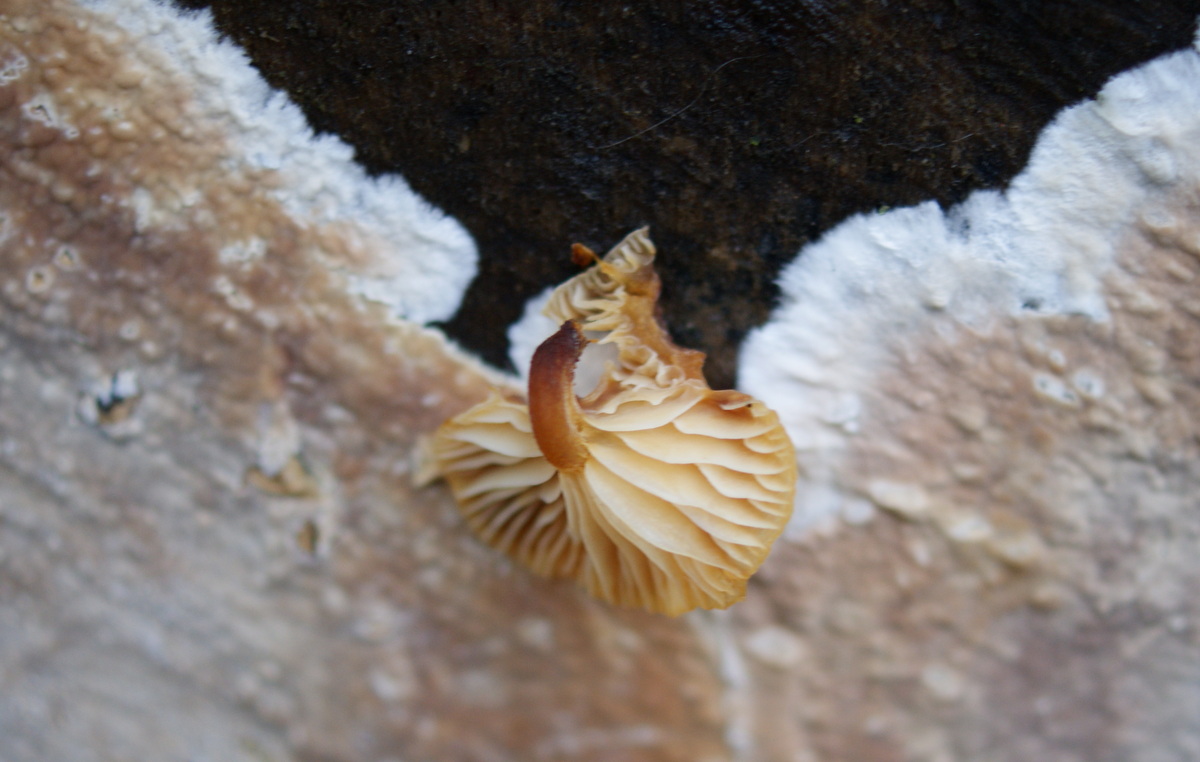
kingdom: Fungi
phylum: Basidiomycota
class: Agaricomycetes
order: Agaricales
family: Physalacriaceae
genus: Flammulina
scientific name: Flammulina velutipes
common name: gul fløjlsfod
